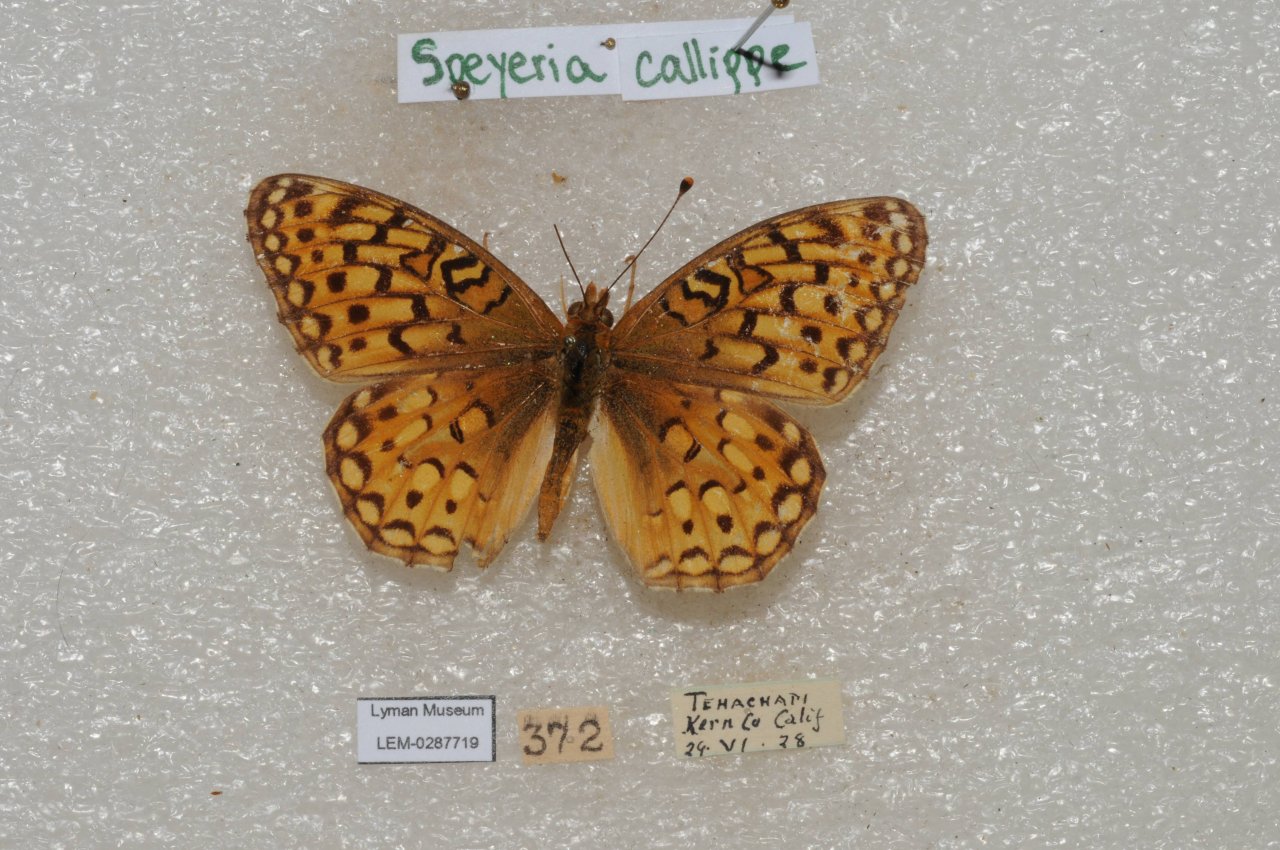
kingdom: Animalia
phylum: Arthropoda
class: Insecta
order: Lepidoptera
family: Nymphalidae
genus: Speyeria
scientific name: Speyeria callippe
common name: Callippe Fritillary
